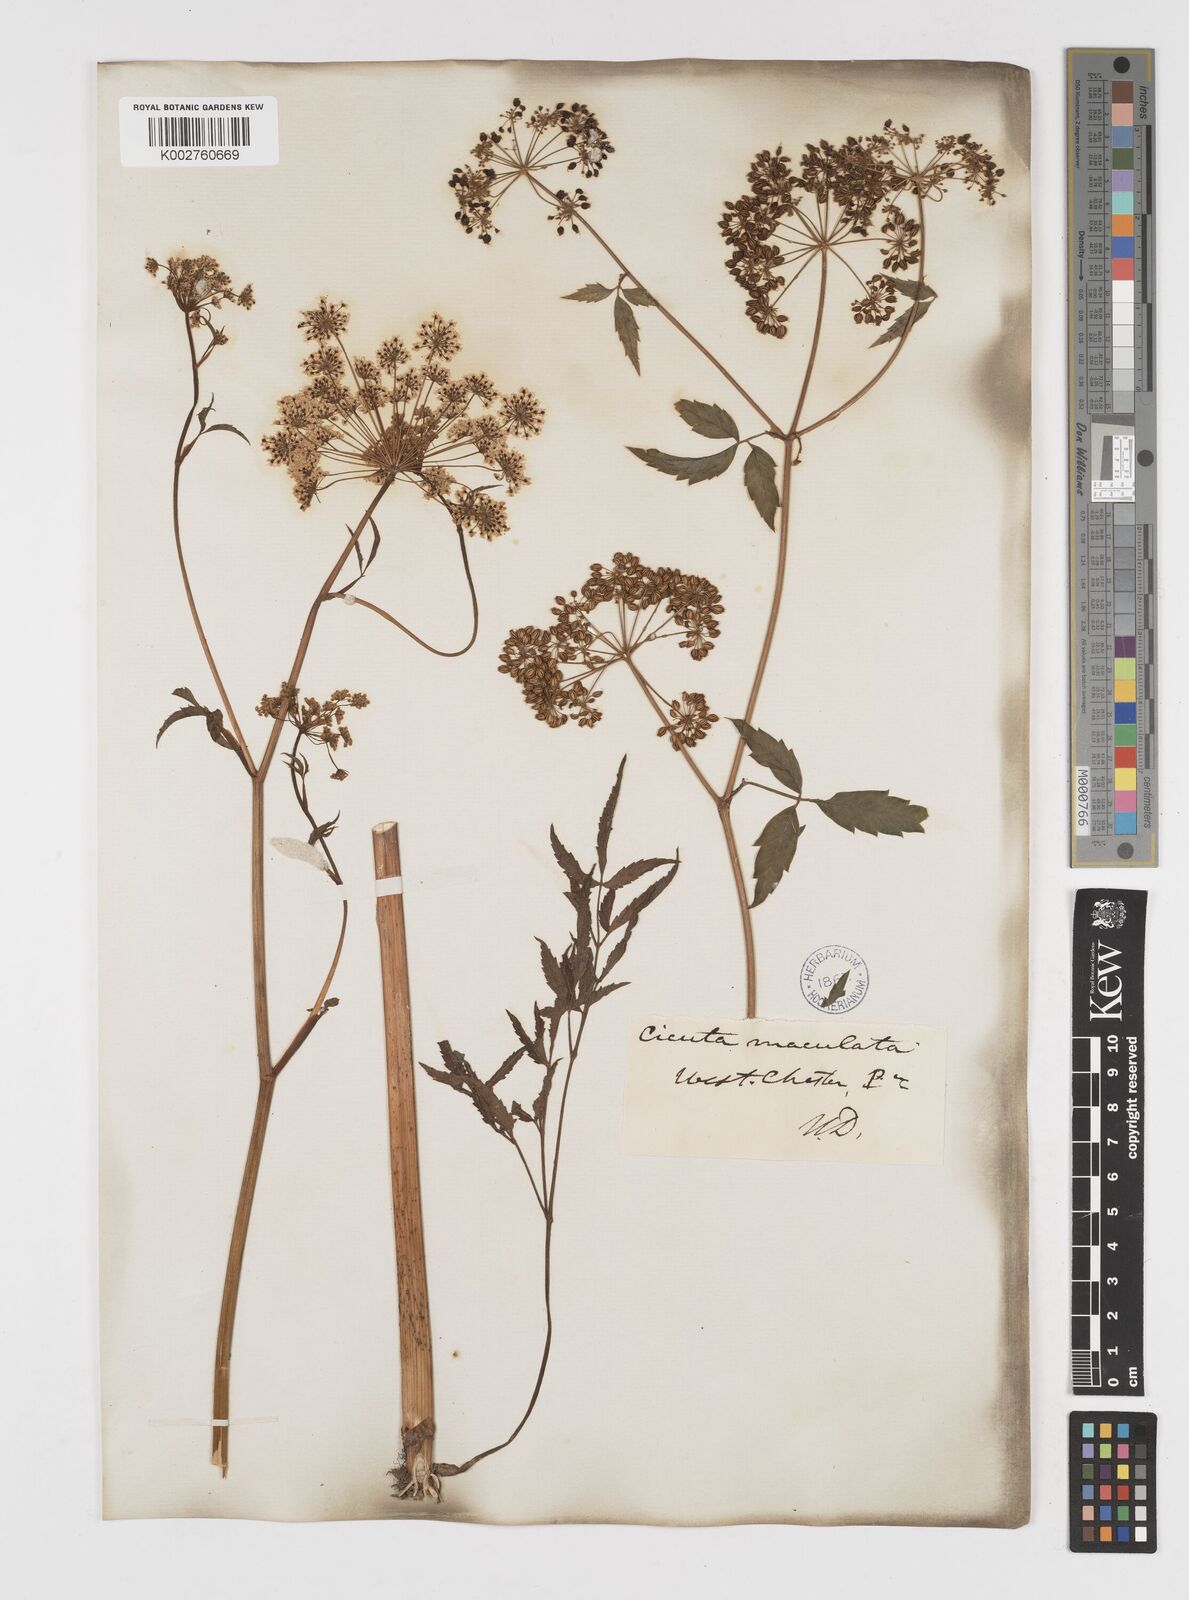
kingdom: Plantae
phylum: Tracheophyta
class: Magnoliopsida
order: Apiales
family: Apiaceae
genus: Cicuta
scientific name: Cicuta maculata
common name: Spotted cowbane
